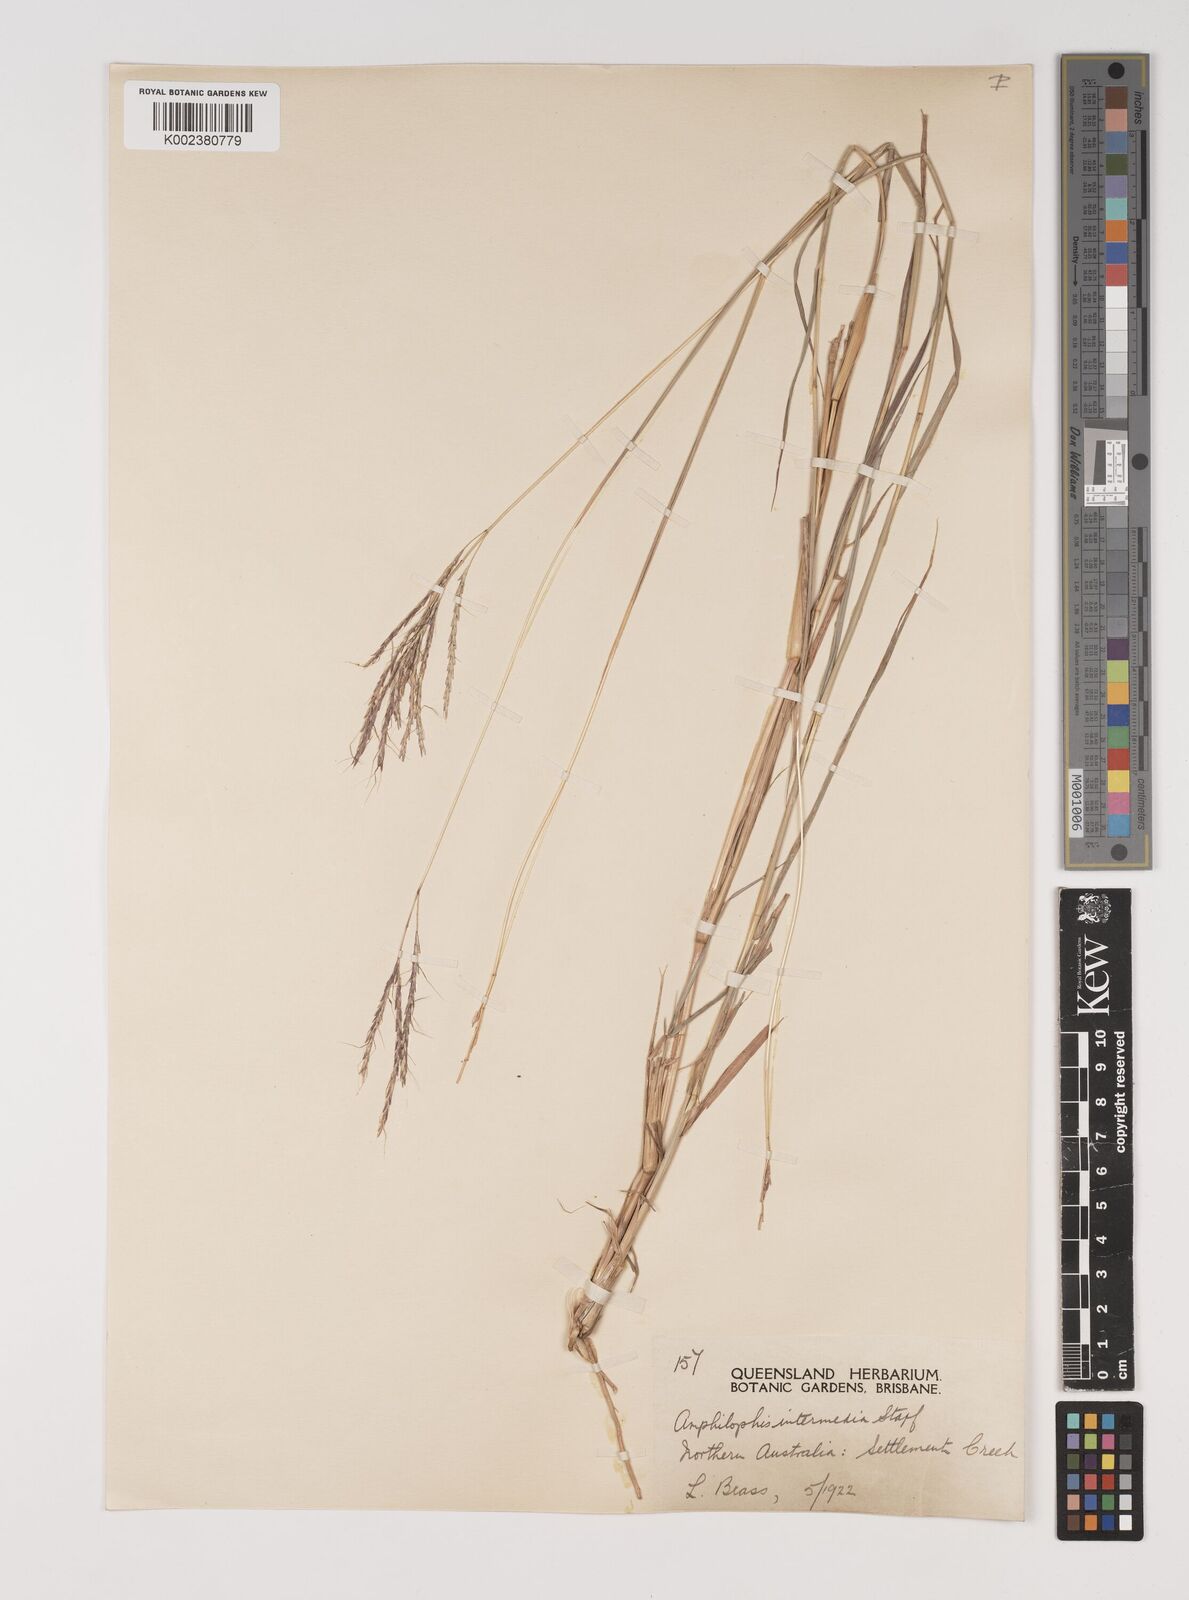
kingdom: Plantae
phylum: Tracheophyta
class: Liliopsida
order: Poales
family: Poaceae
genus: Bothriochloa
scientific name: Bothriochloa bladhii
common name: Caucasian bluestem
